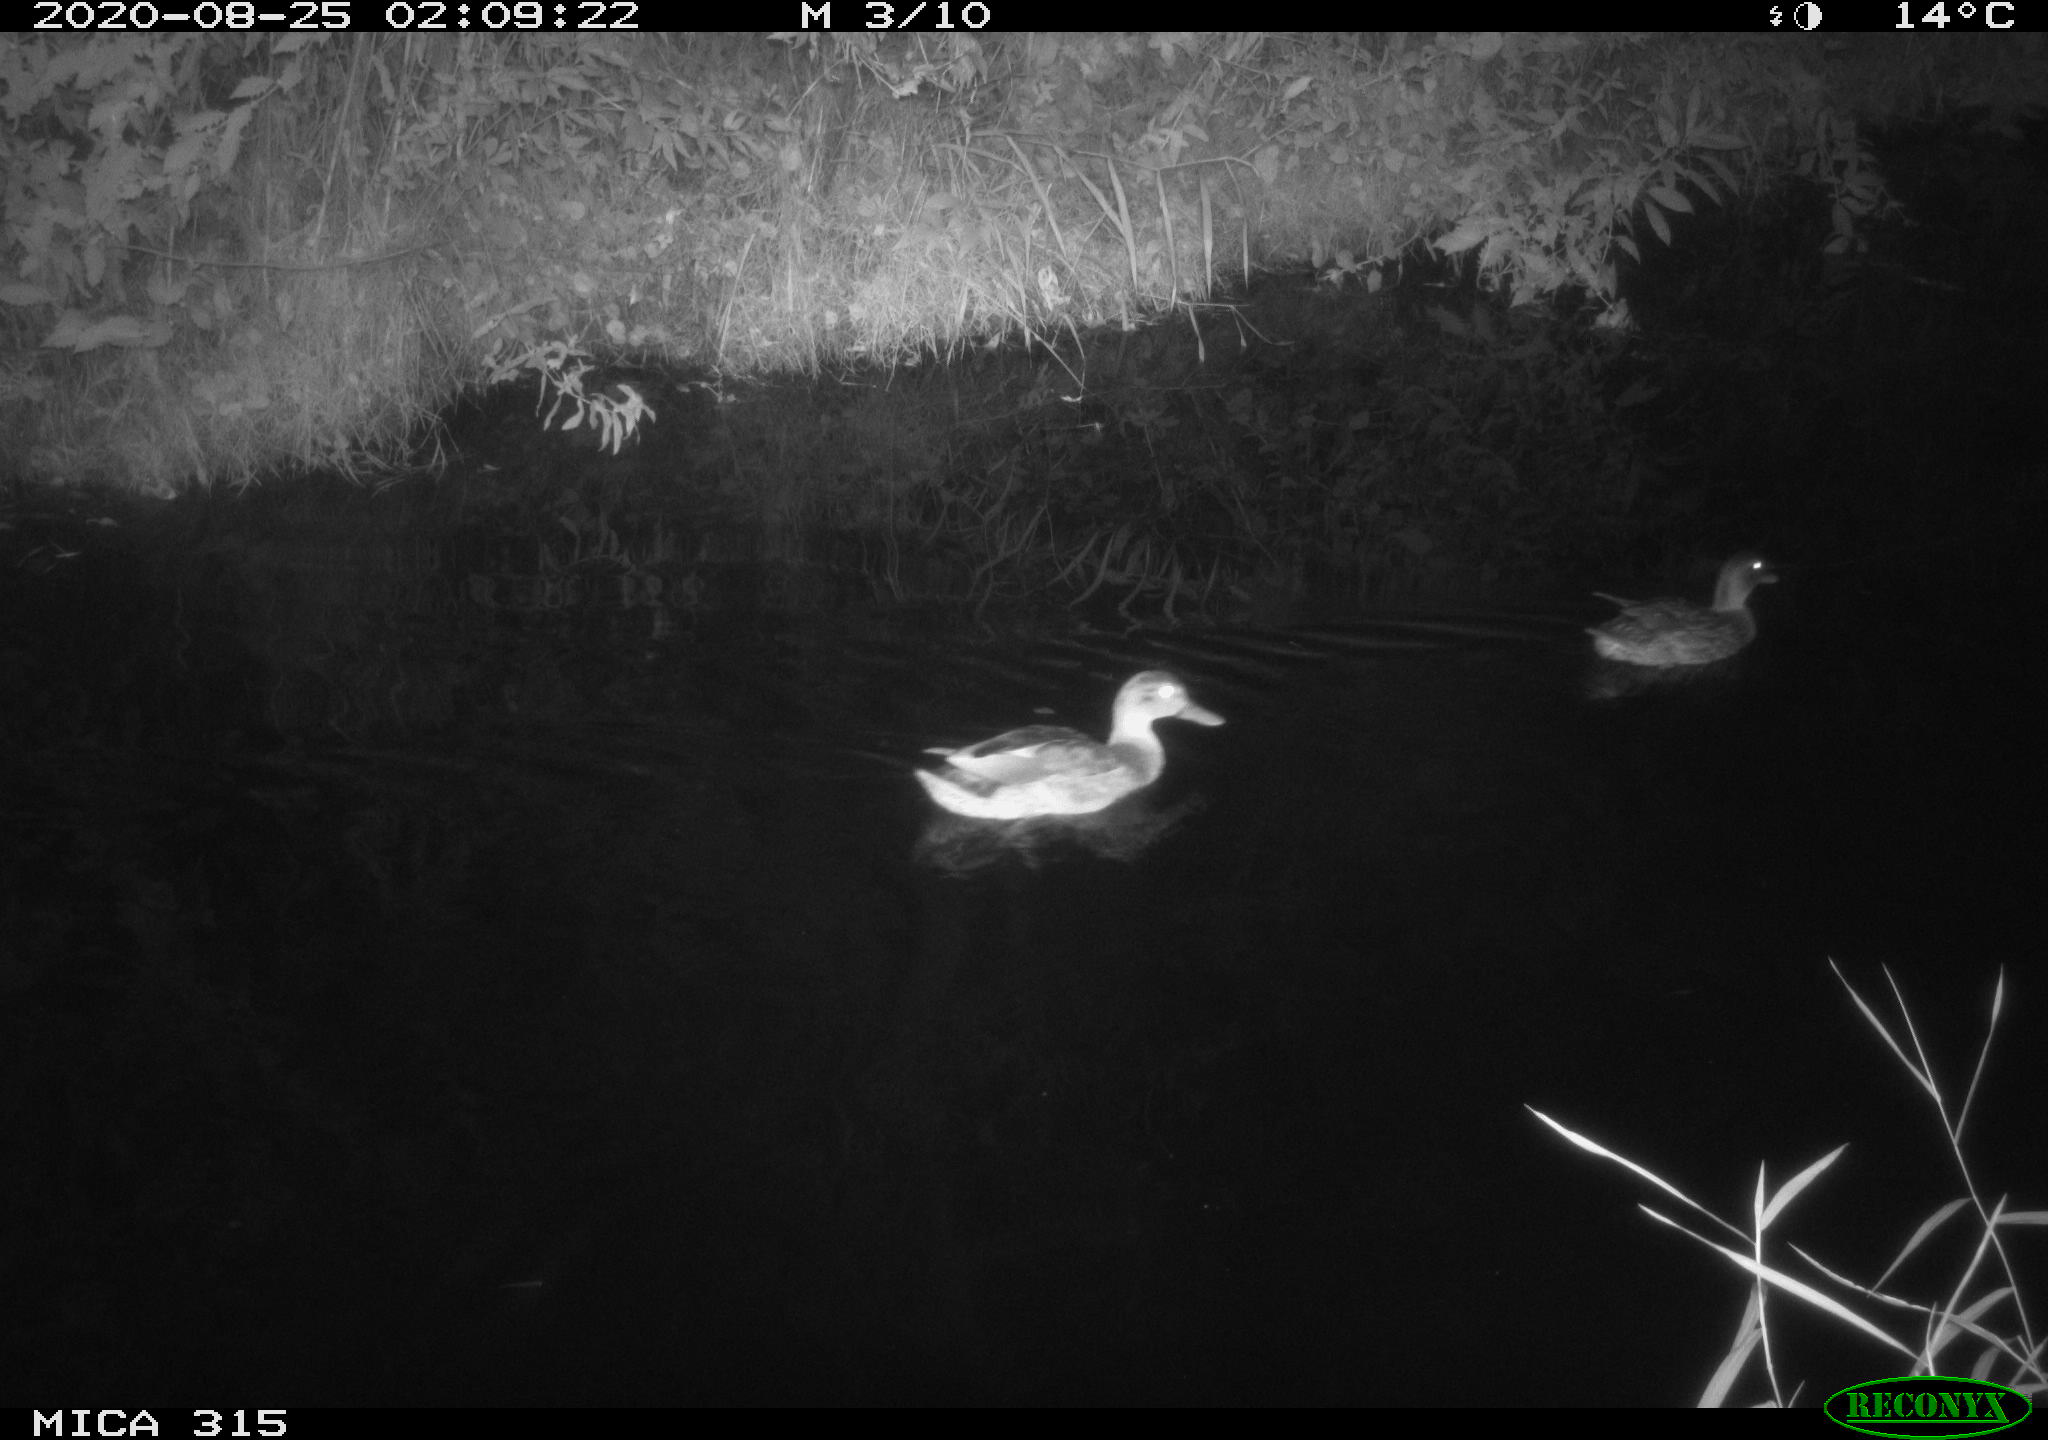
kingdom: Animalia
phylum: Chordata
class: Aves
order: Anseriformes
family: Anatidae
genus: Anas
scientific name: Anas platyrhynchos
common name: Mallard
